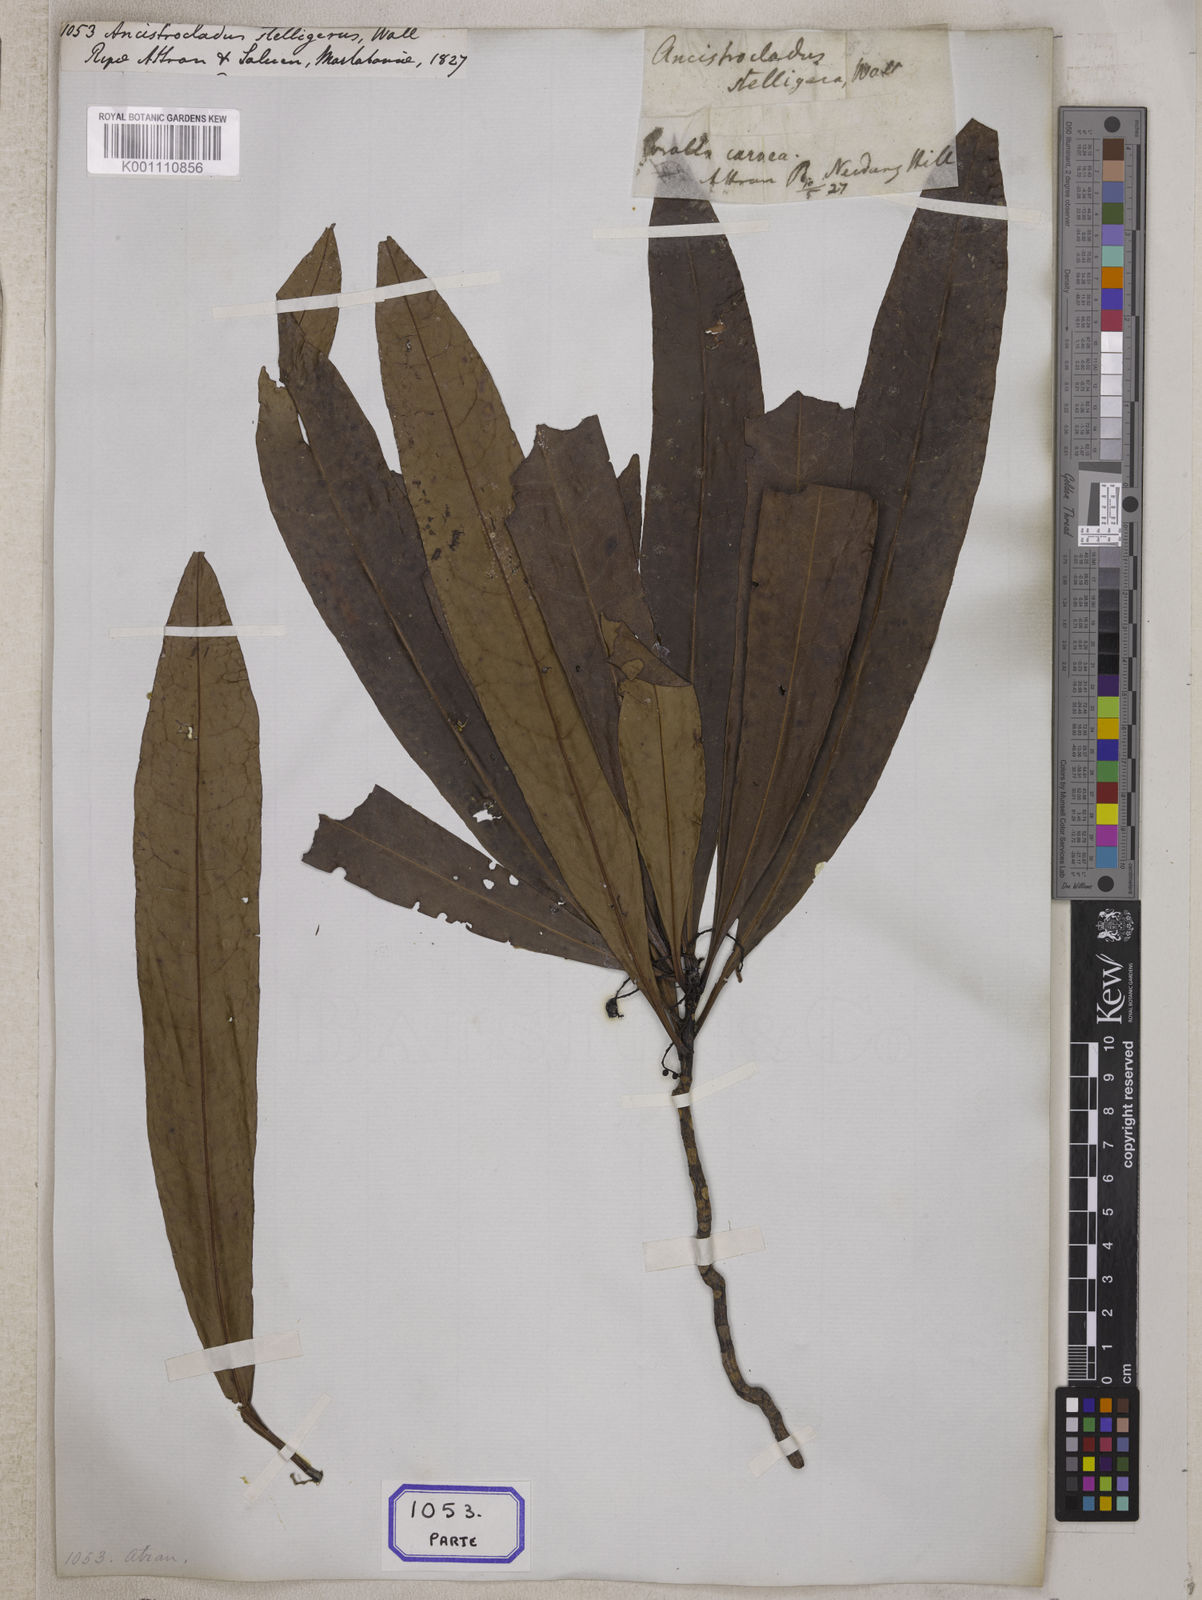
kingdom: Plantae
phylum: Tracheophyta
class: Magnoliopsida
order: Caryophyllales
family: Ancistrocladaceae
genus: Ancistrocladus
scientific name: Ancistrocladus
